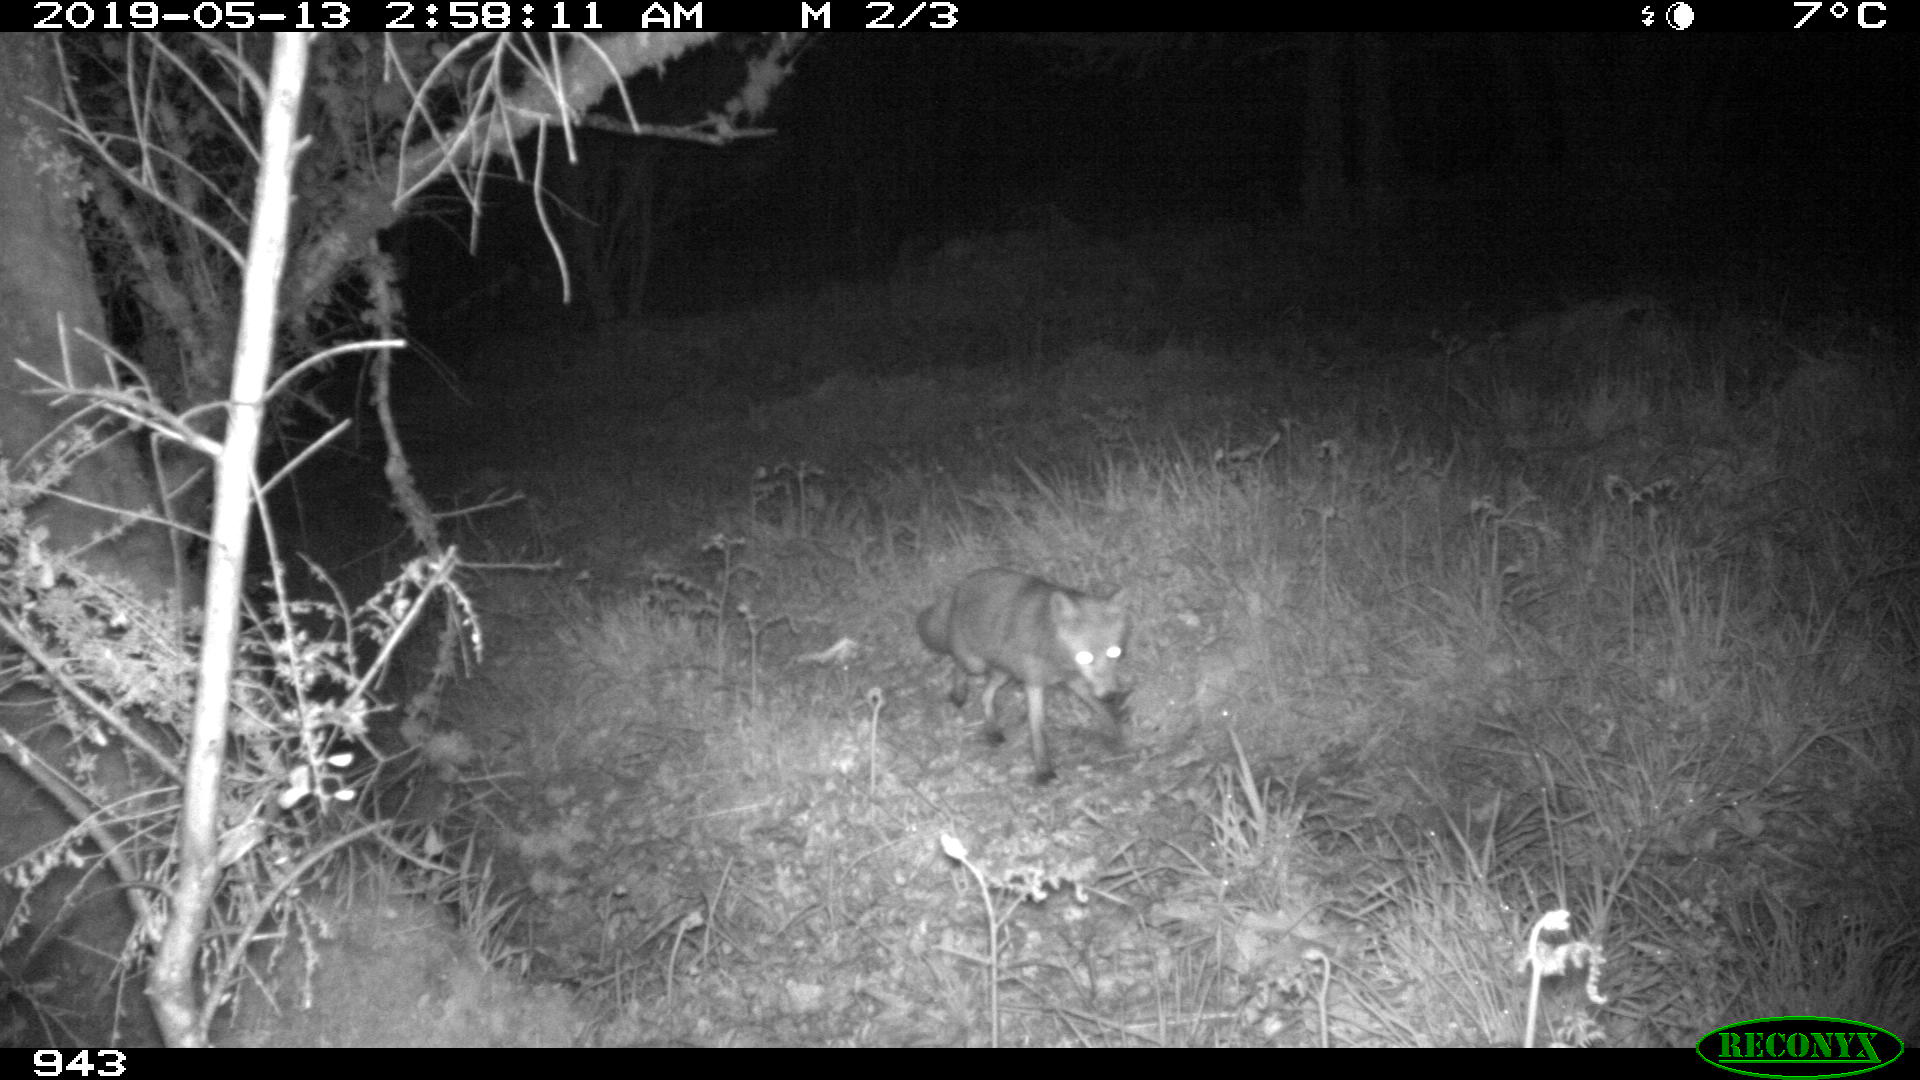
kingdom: Animalia
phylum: Chordata
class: Mammalia
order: Carnivora
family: Canidae
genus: Vulpes
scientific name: Vulpes vulpes
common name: Red fox
